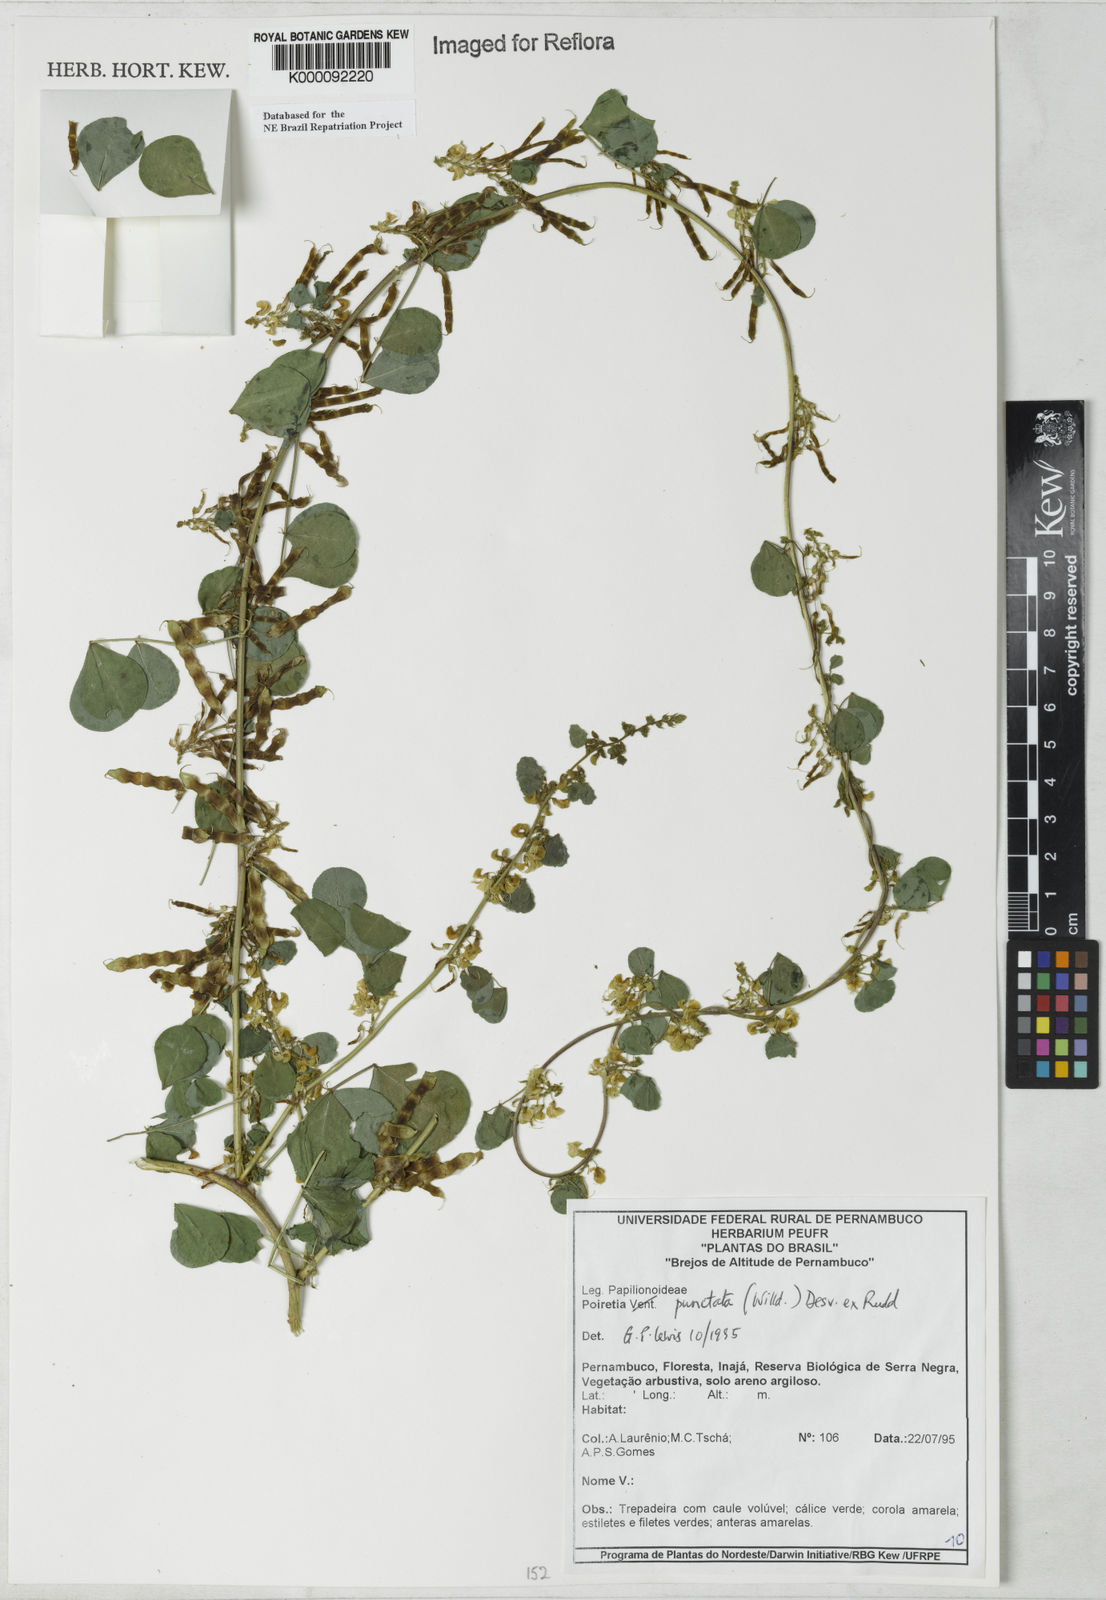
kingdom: Plantae
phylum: Tracheophyta
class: Magnoliopsida
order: Fabales
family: Fabaceae
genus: Poiretia
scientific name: Poiretia punctata
